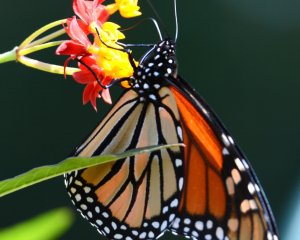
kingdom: Animalia
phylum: Arthropoda
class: Insecta
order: Lepidoptera
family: Nymphalidae
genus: Danaus
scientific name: Danaus plexippus
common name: Monarch
